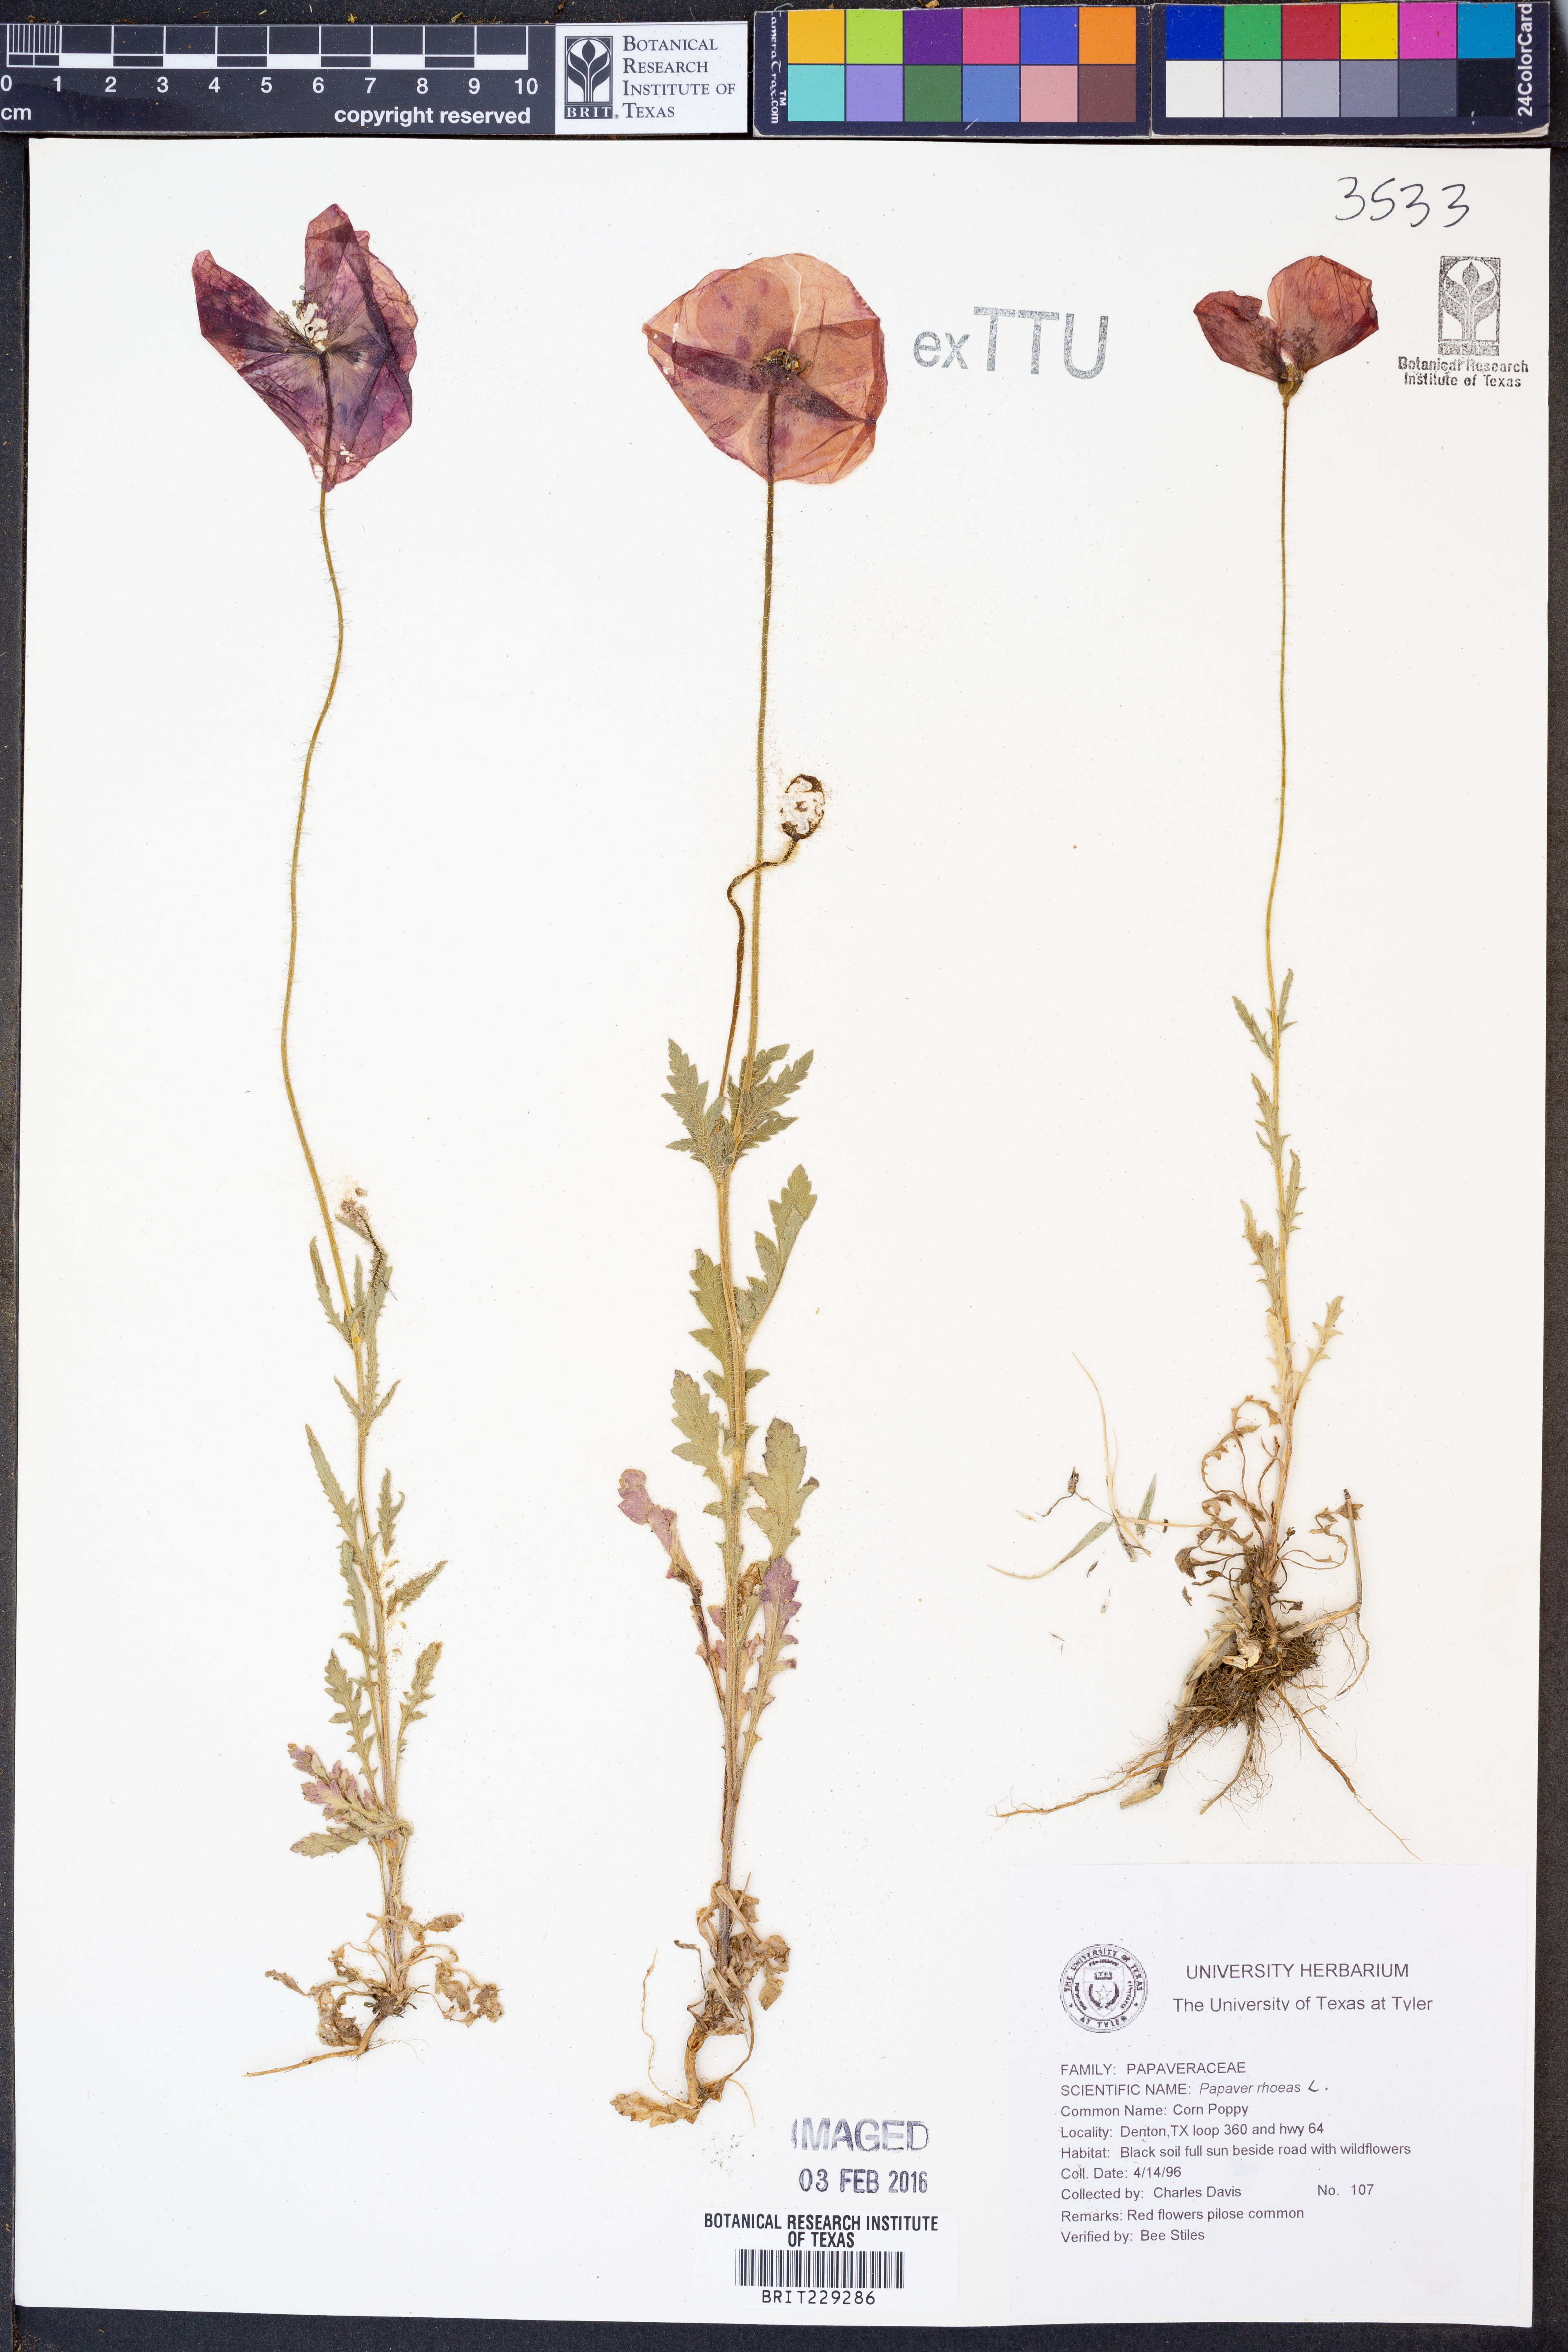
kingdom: Plantae
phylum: Tracheophyta
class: Magnoliopsida
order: Ranunculales
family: Papaveraceae
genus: Papaver
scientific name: Papaver rhoeas
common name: Corn poppy
